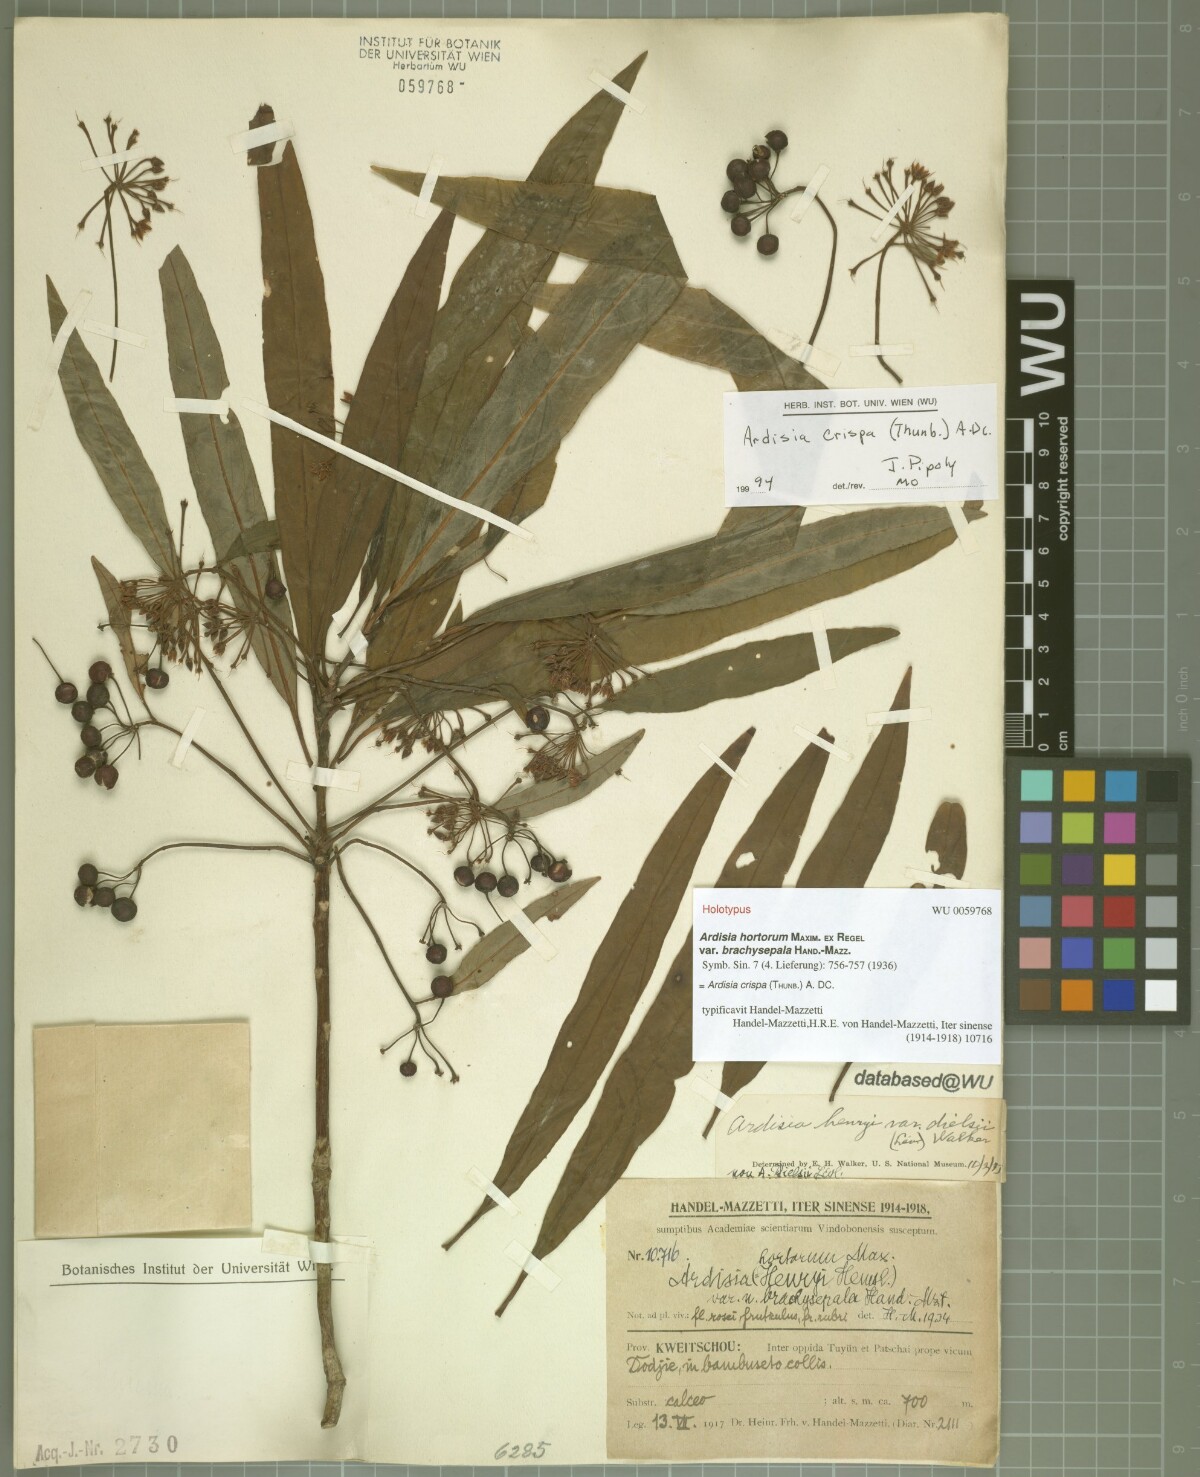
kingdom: Plantae
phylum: Tracheophyta
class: Magnoliopsida
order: Ericales
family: Primulaceae
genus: Ardisia
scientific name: Ardisia crispa
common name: Japanese-holly
